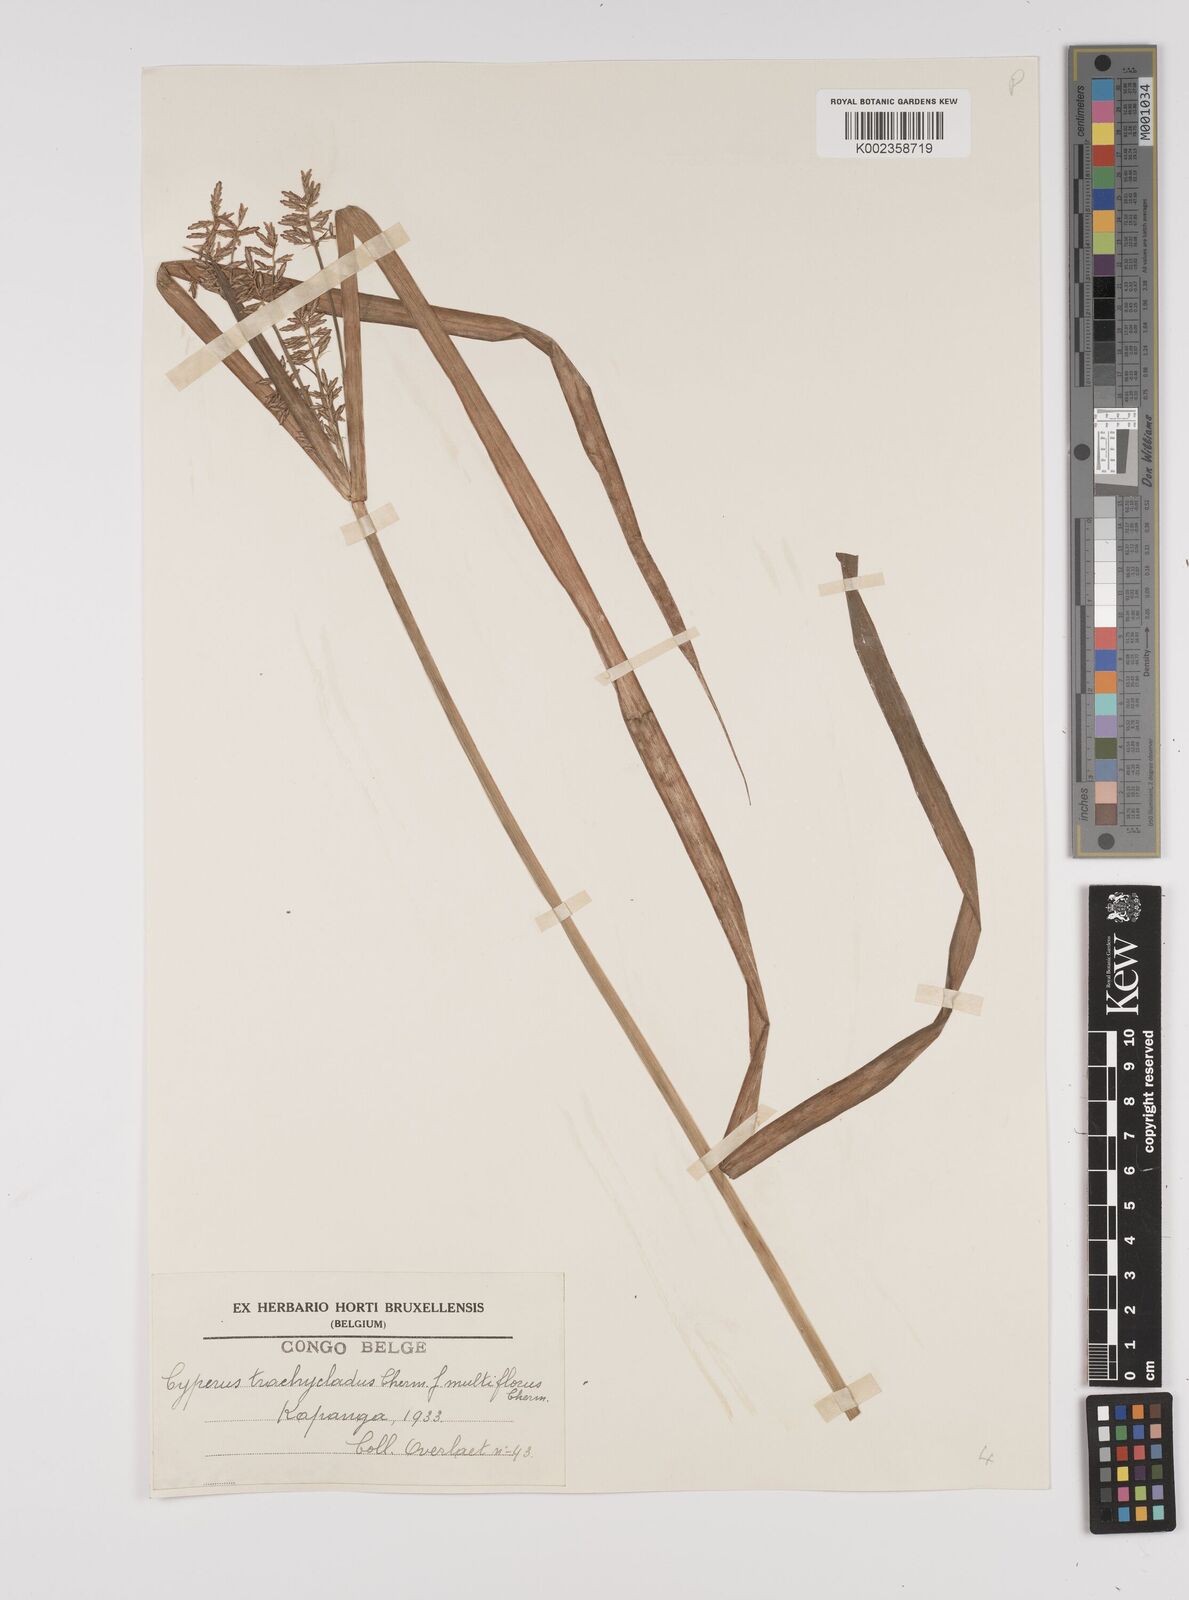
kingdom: Plantae
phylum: Tracheophyta
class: Liliopsida
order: Poales
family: Cyperaceae
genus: Cyperus
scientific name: Cyperus incompressus
